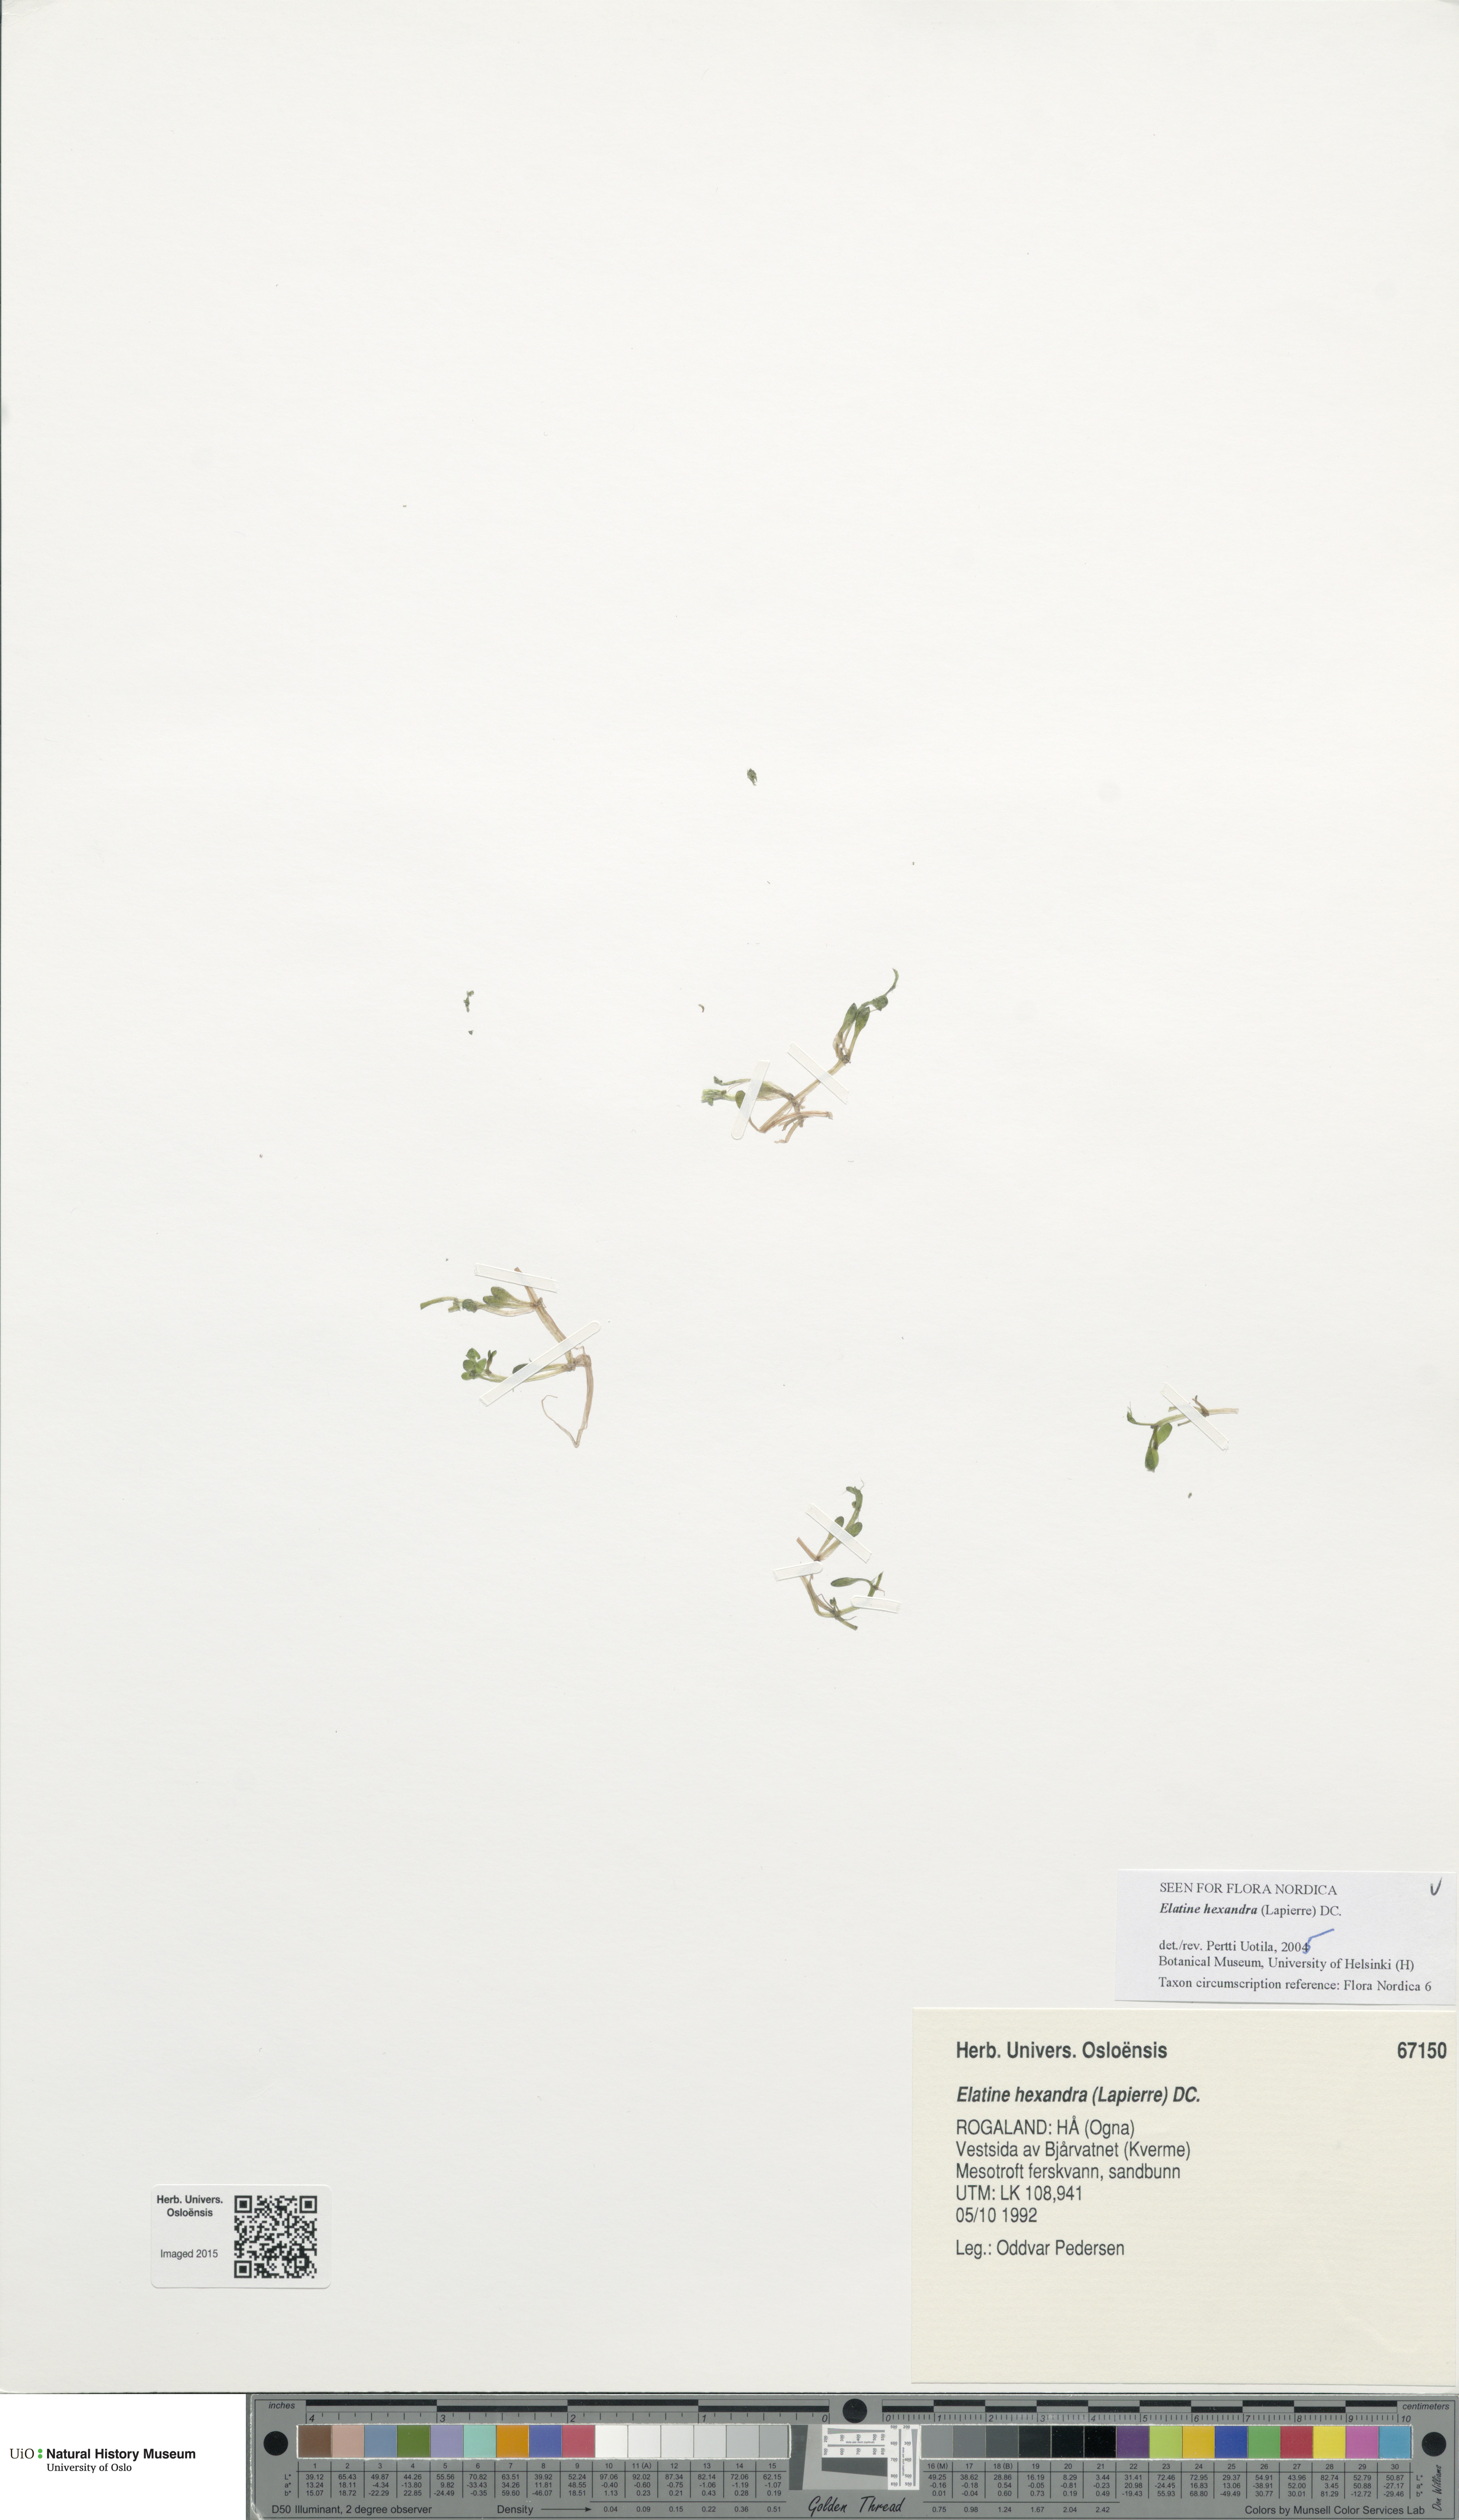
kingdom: Plantae
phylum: Tracheophyta
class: Magnoliopsida
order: Malpighiales
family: Elatinaceae
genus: Elatine
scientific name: Elatine hexandra
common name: Six-stamened waterwort
